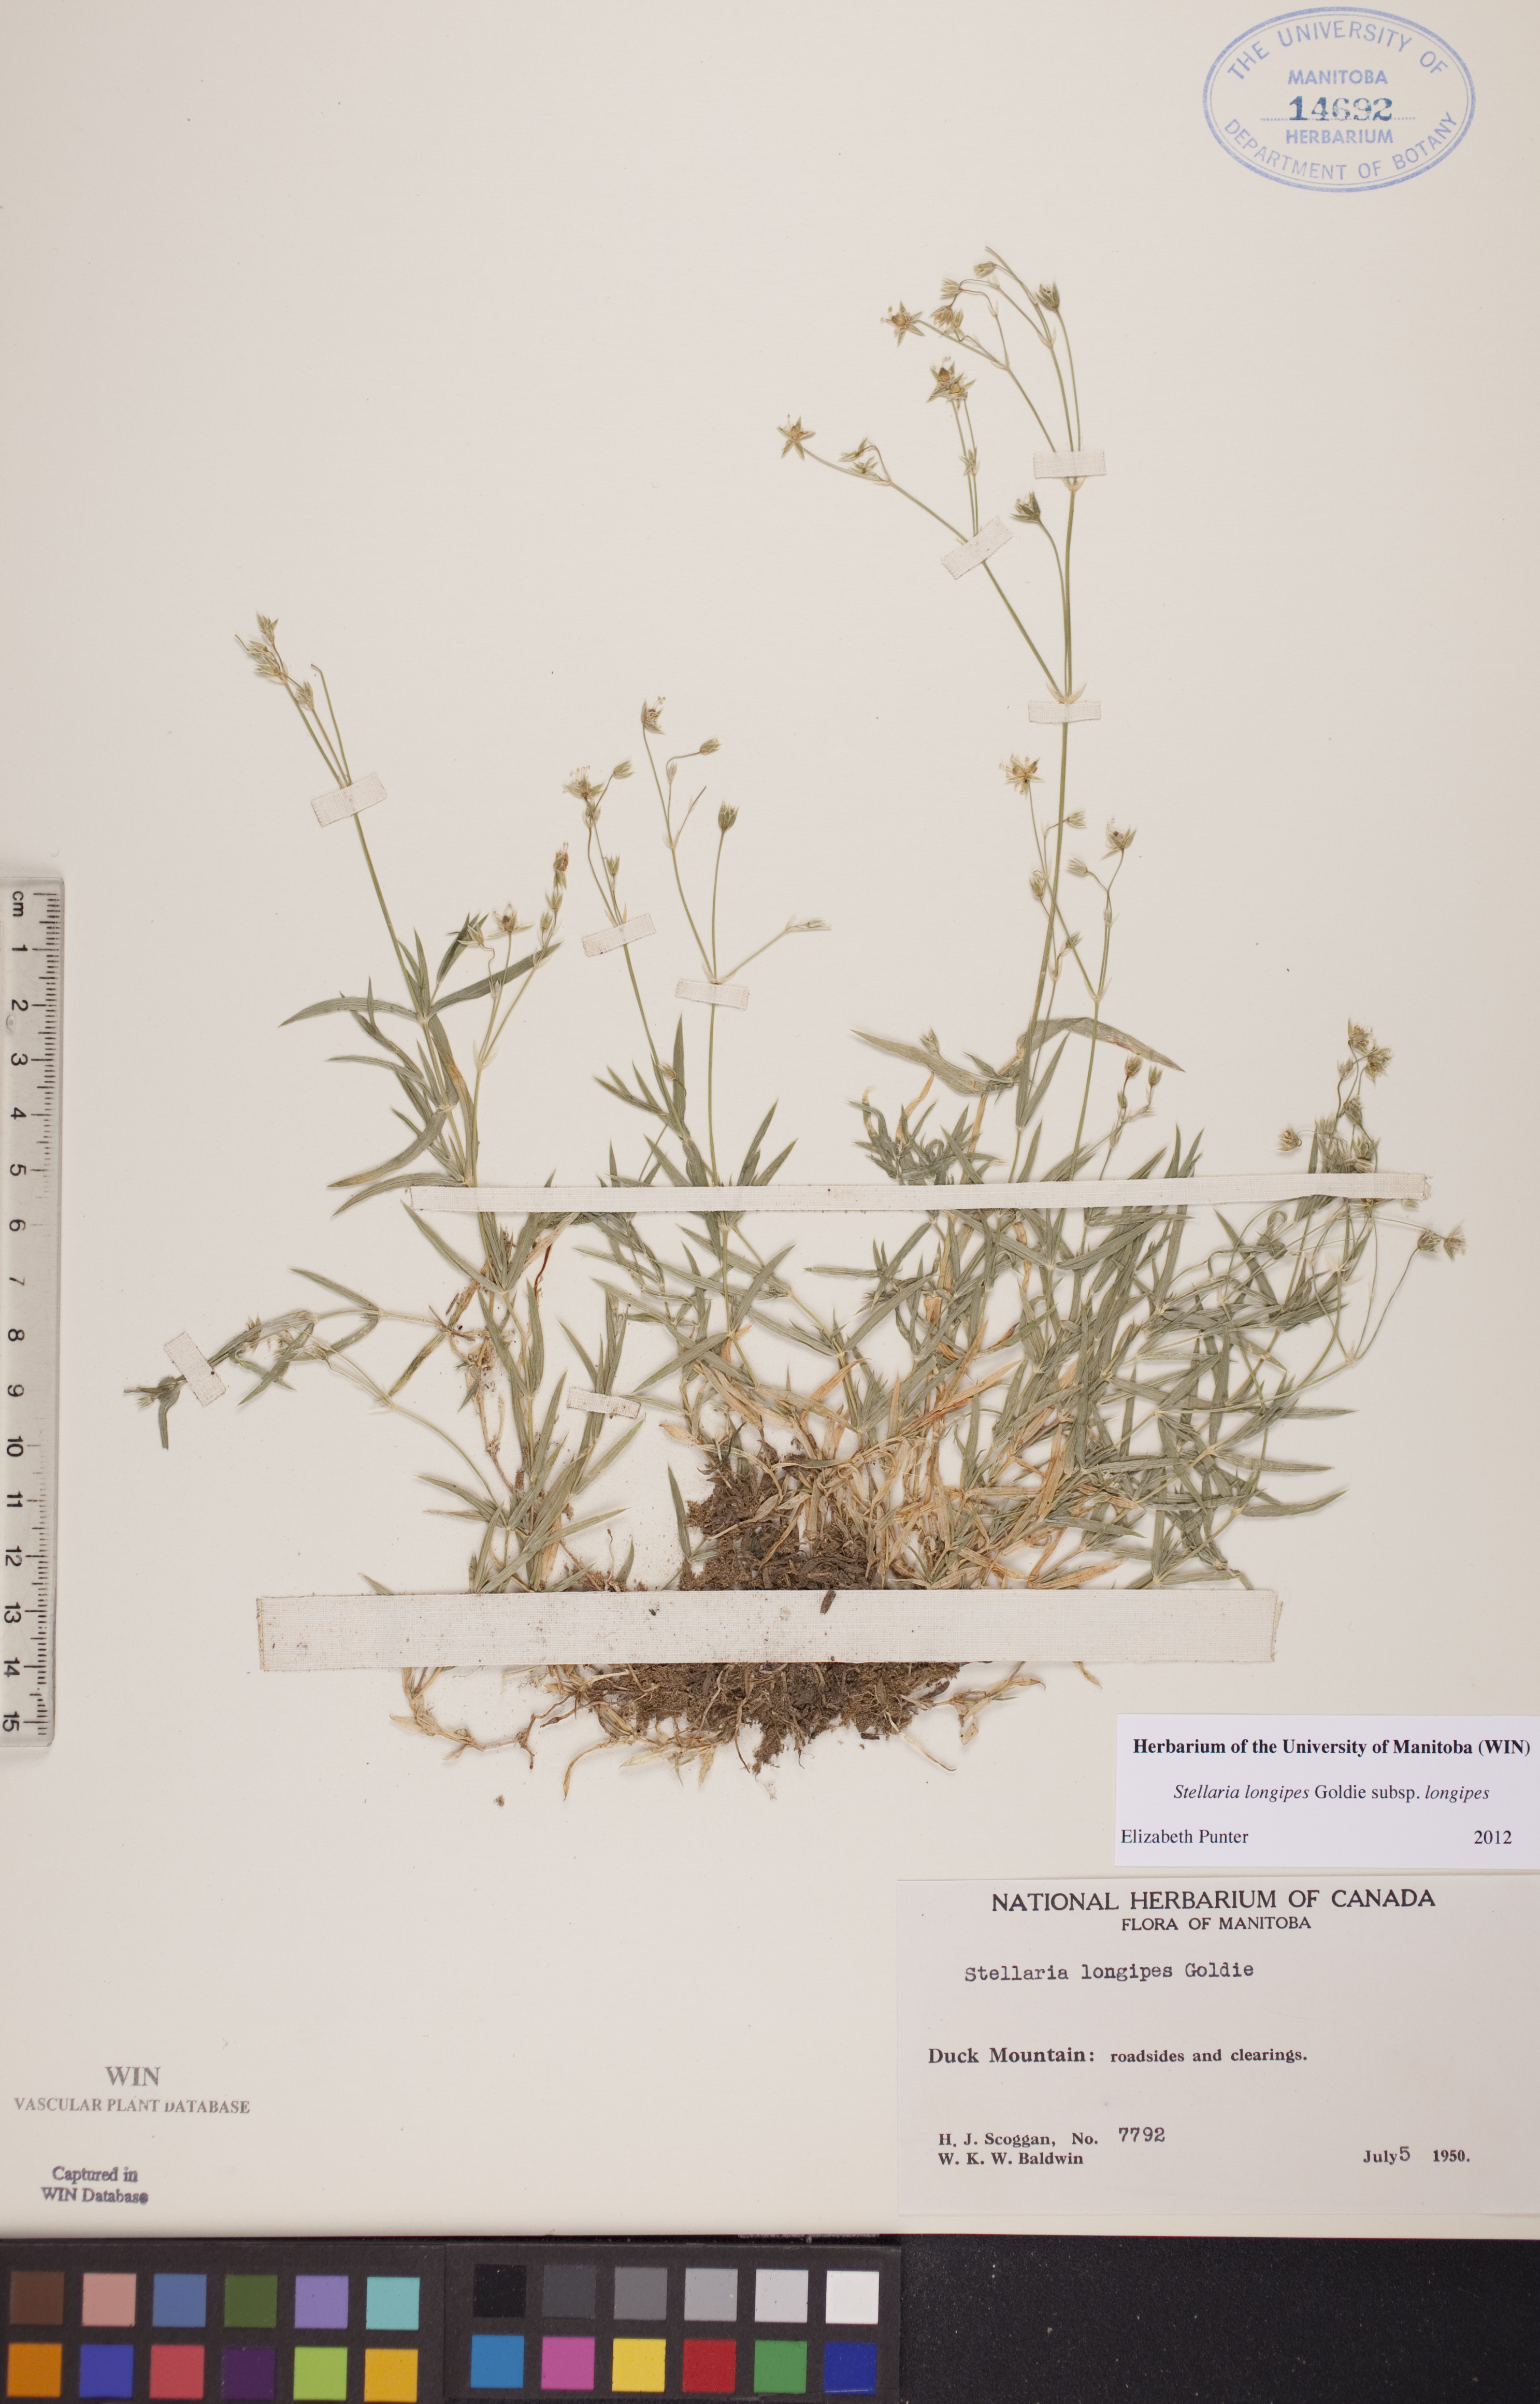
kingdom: Plantae
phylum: Tracheophyta
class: Magnoliopsida
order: Caryophyllales
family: Caryophyllaceae
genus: Stellaria
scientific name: Stellaria longipes
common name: Goldie's starwort
